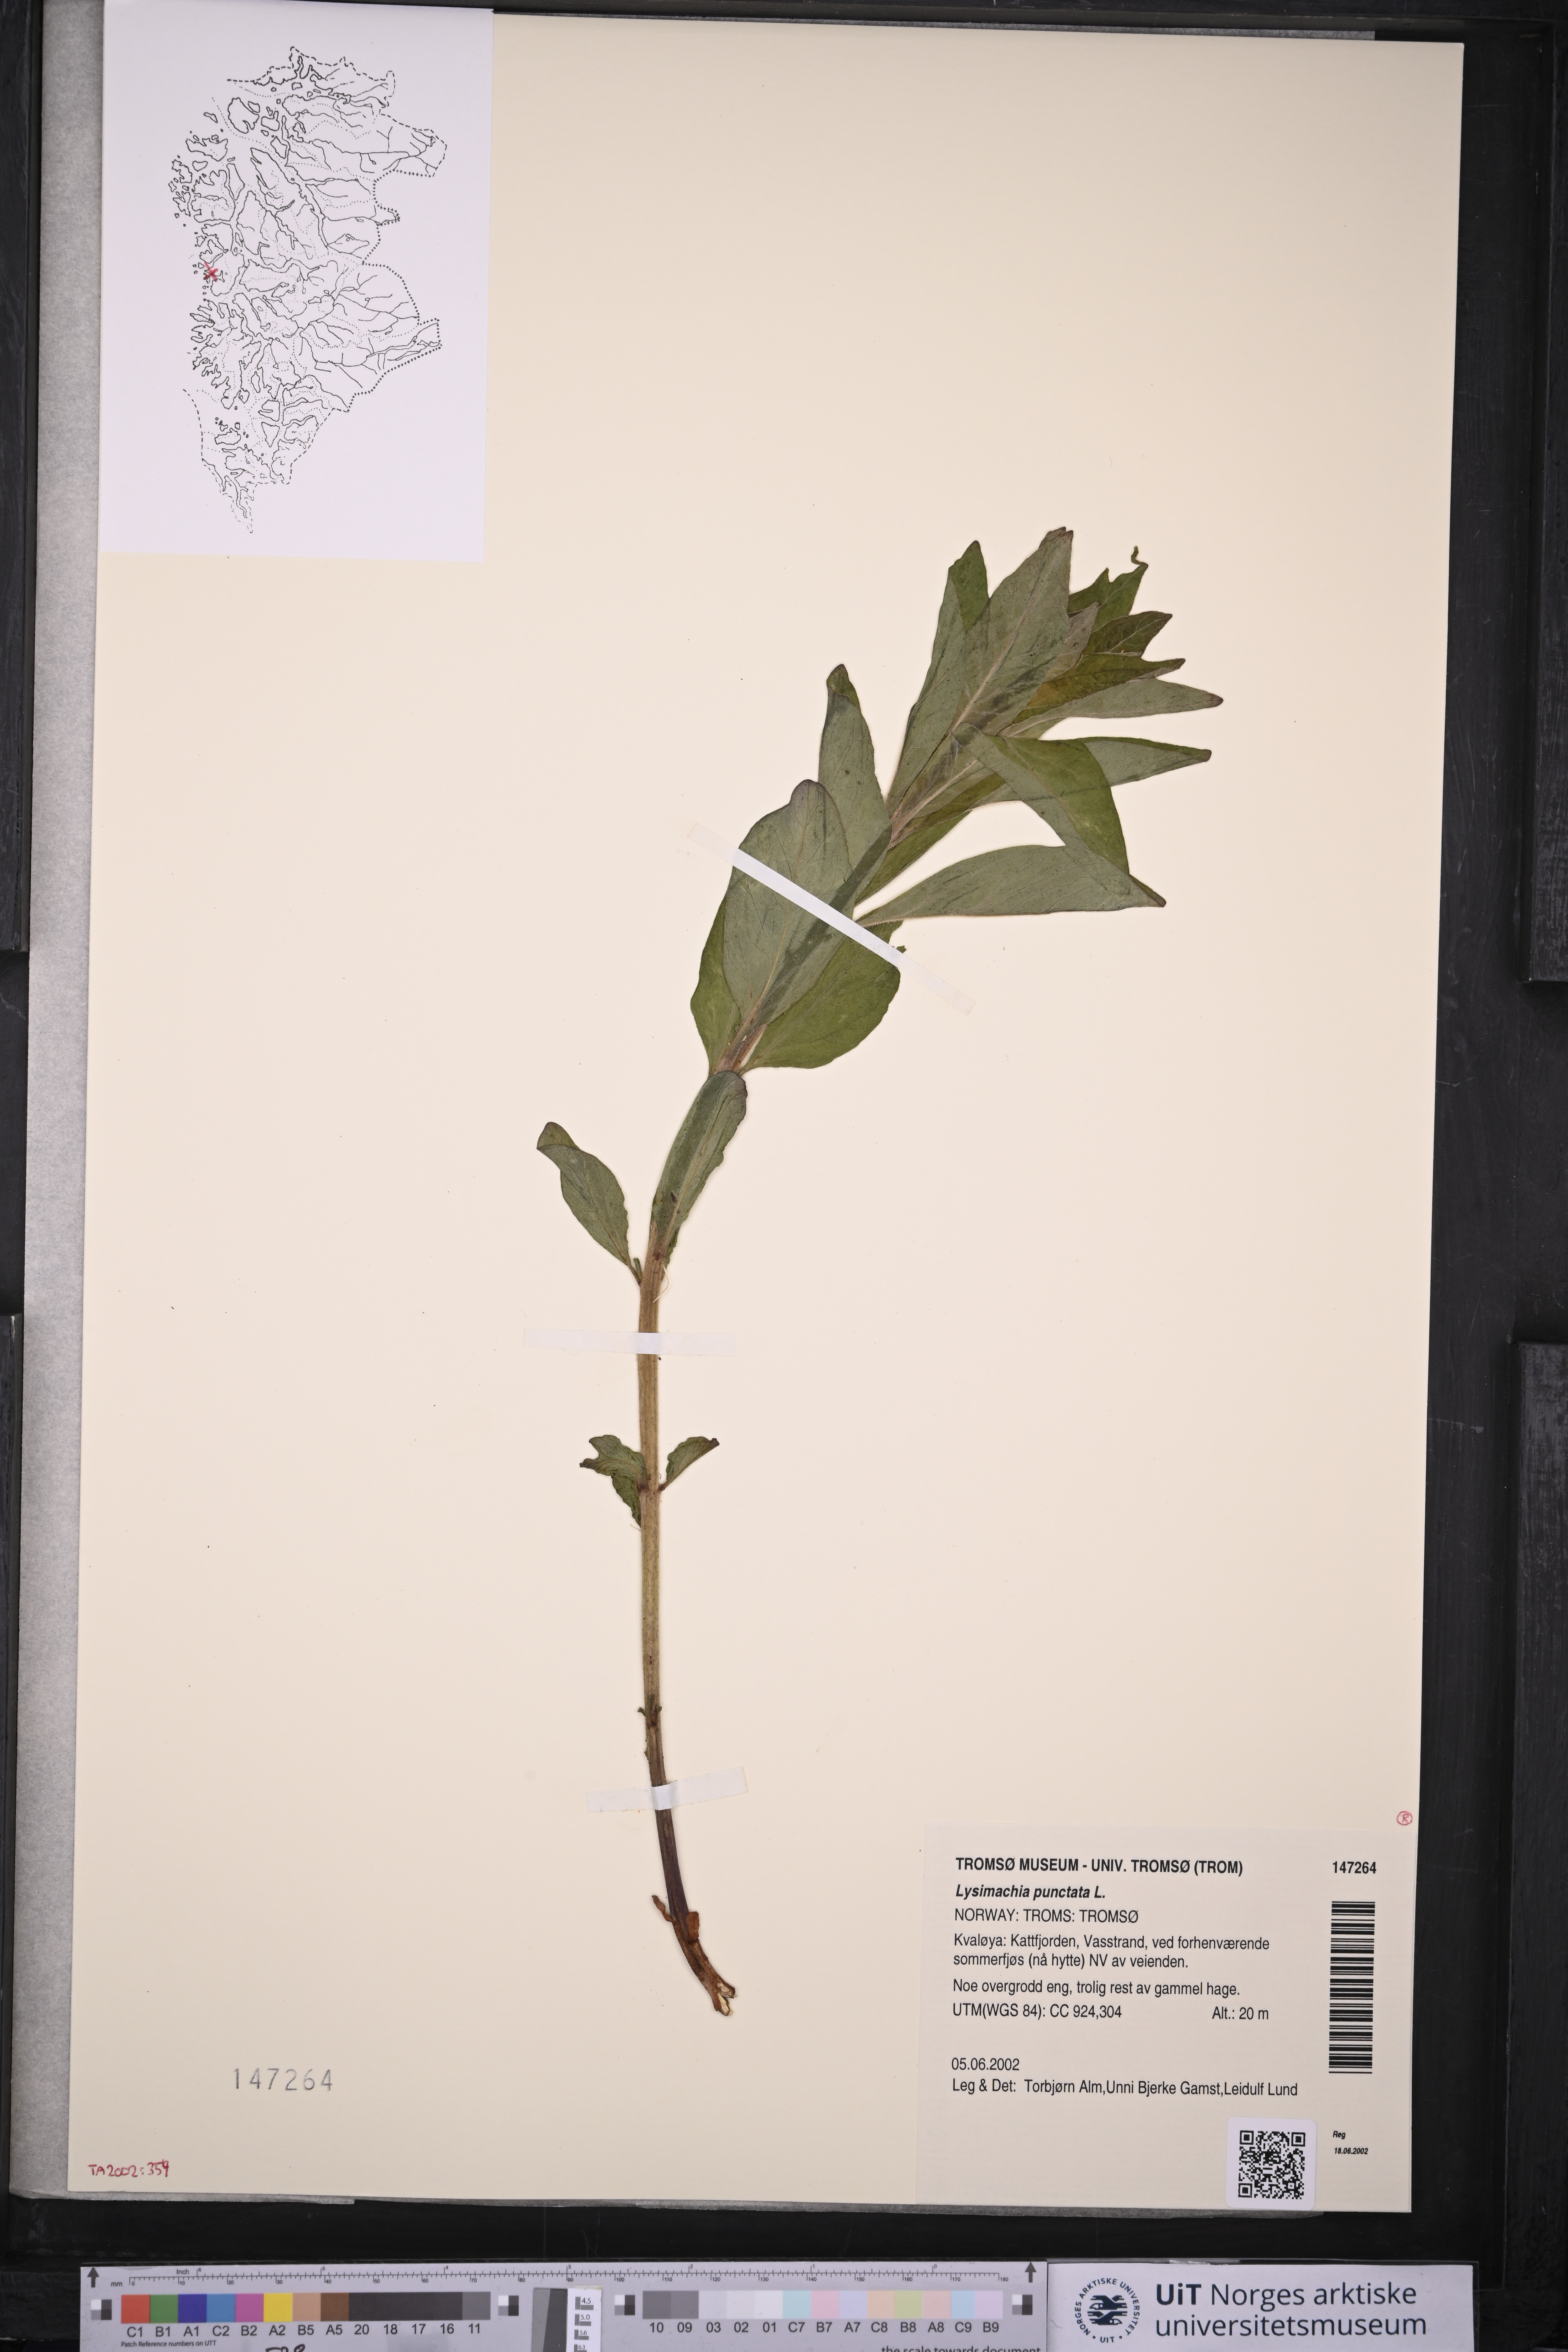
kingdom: Plantae
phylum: Tracheophyta
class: Magnoliopsida
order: Ericales
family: Primulaceae
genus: Lysimachia
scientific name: Lysimachia punctata
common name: Dotted loosestrife
